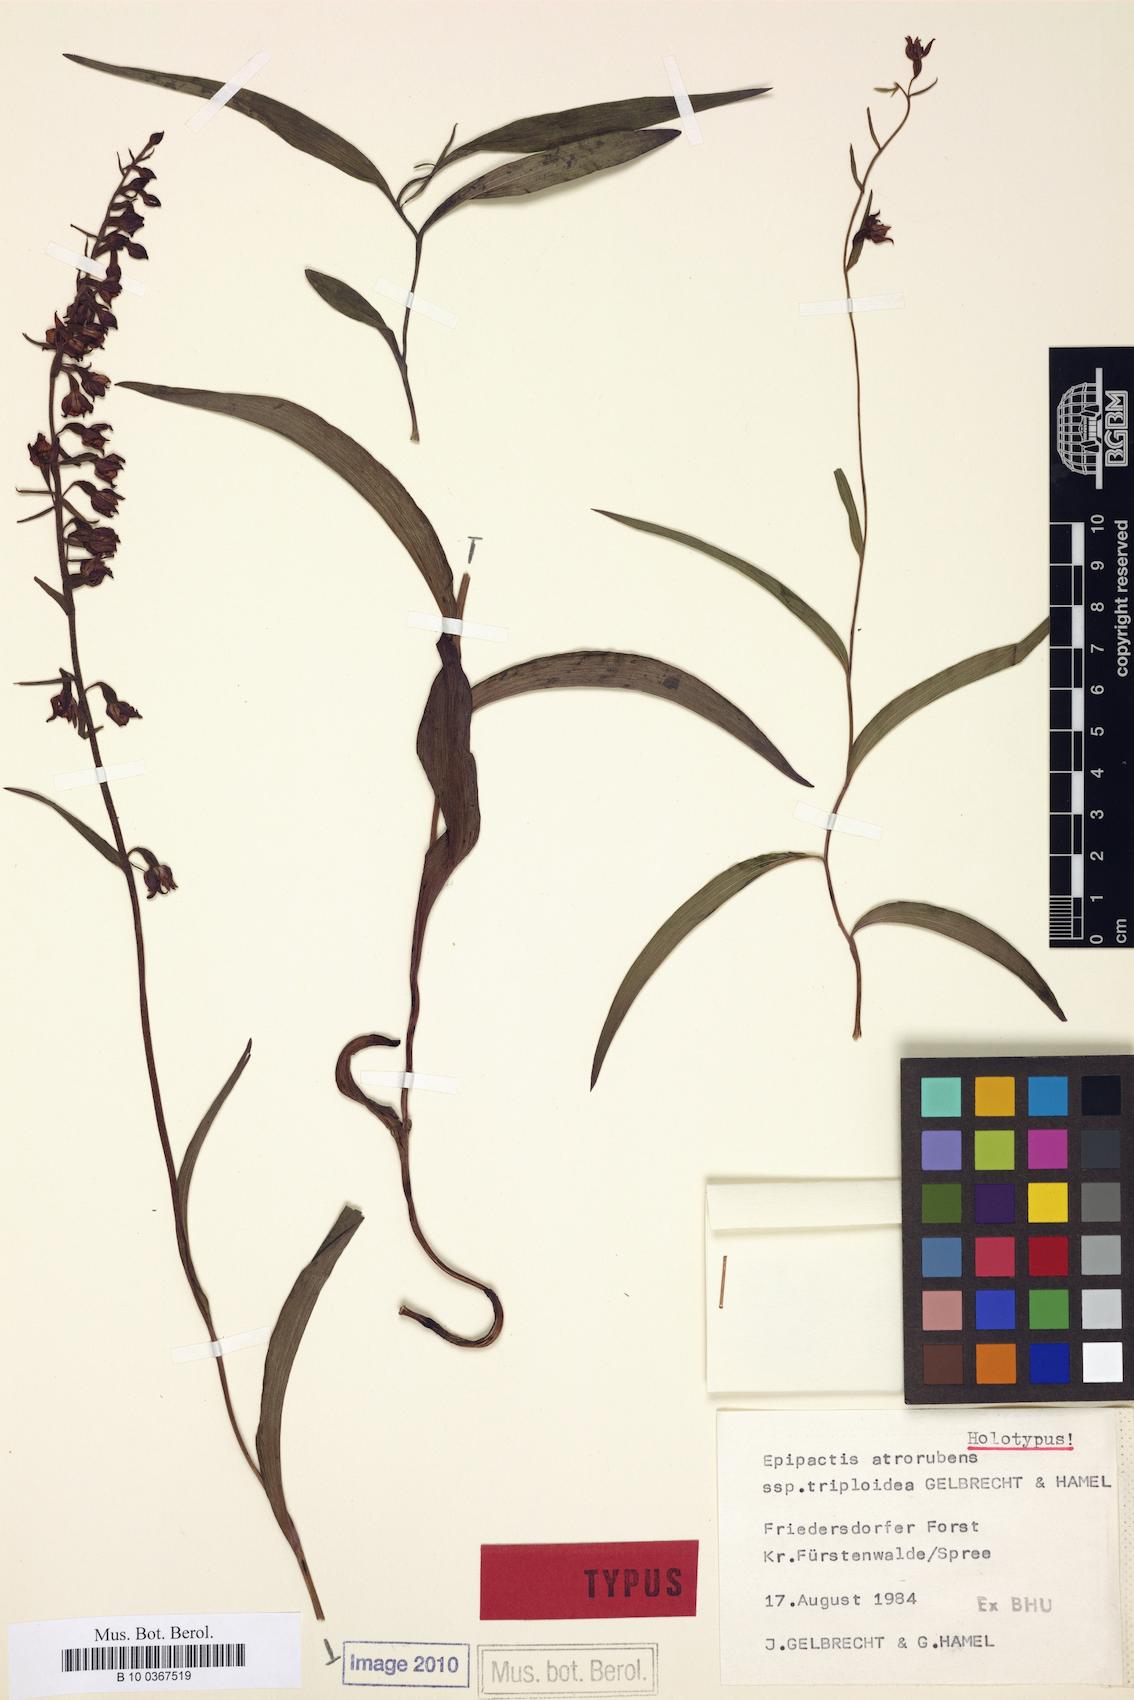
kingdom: Plantae
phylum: Tracheophyta
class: Liliopsida
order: Asparagales
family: Orchidaceae
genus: Epipactis
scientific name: Epipactis atrorubens
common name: Dark-red helleborine
